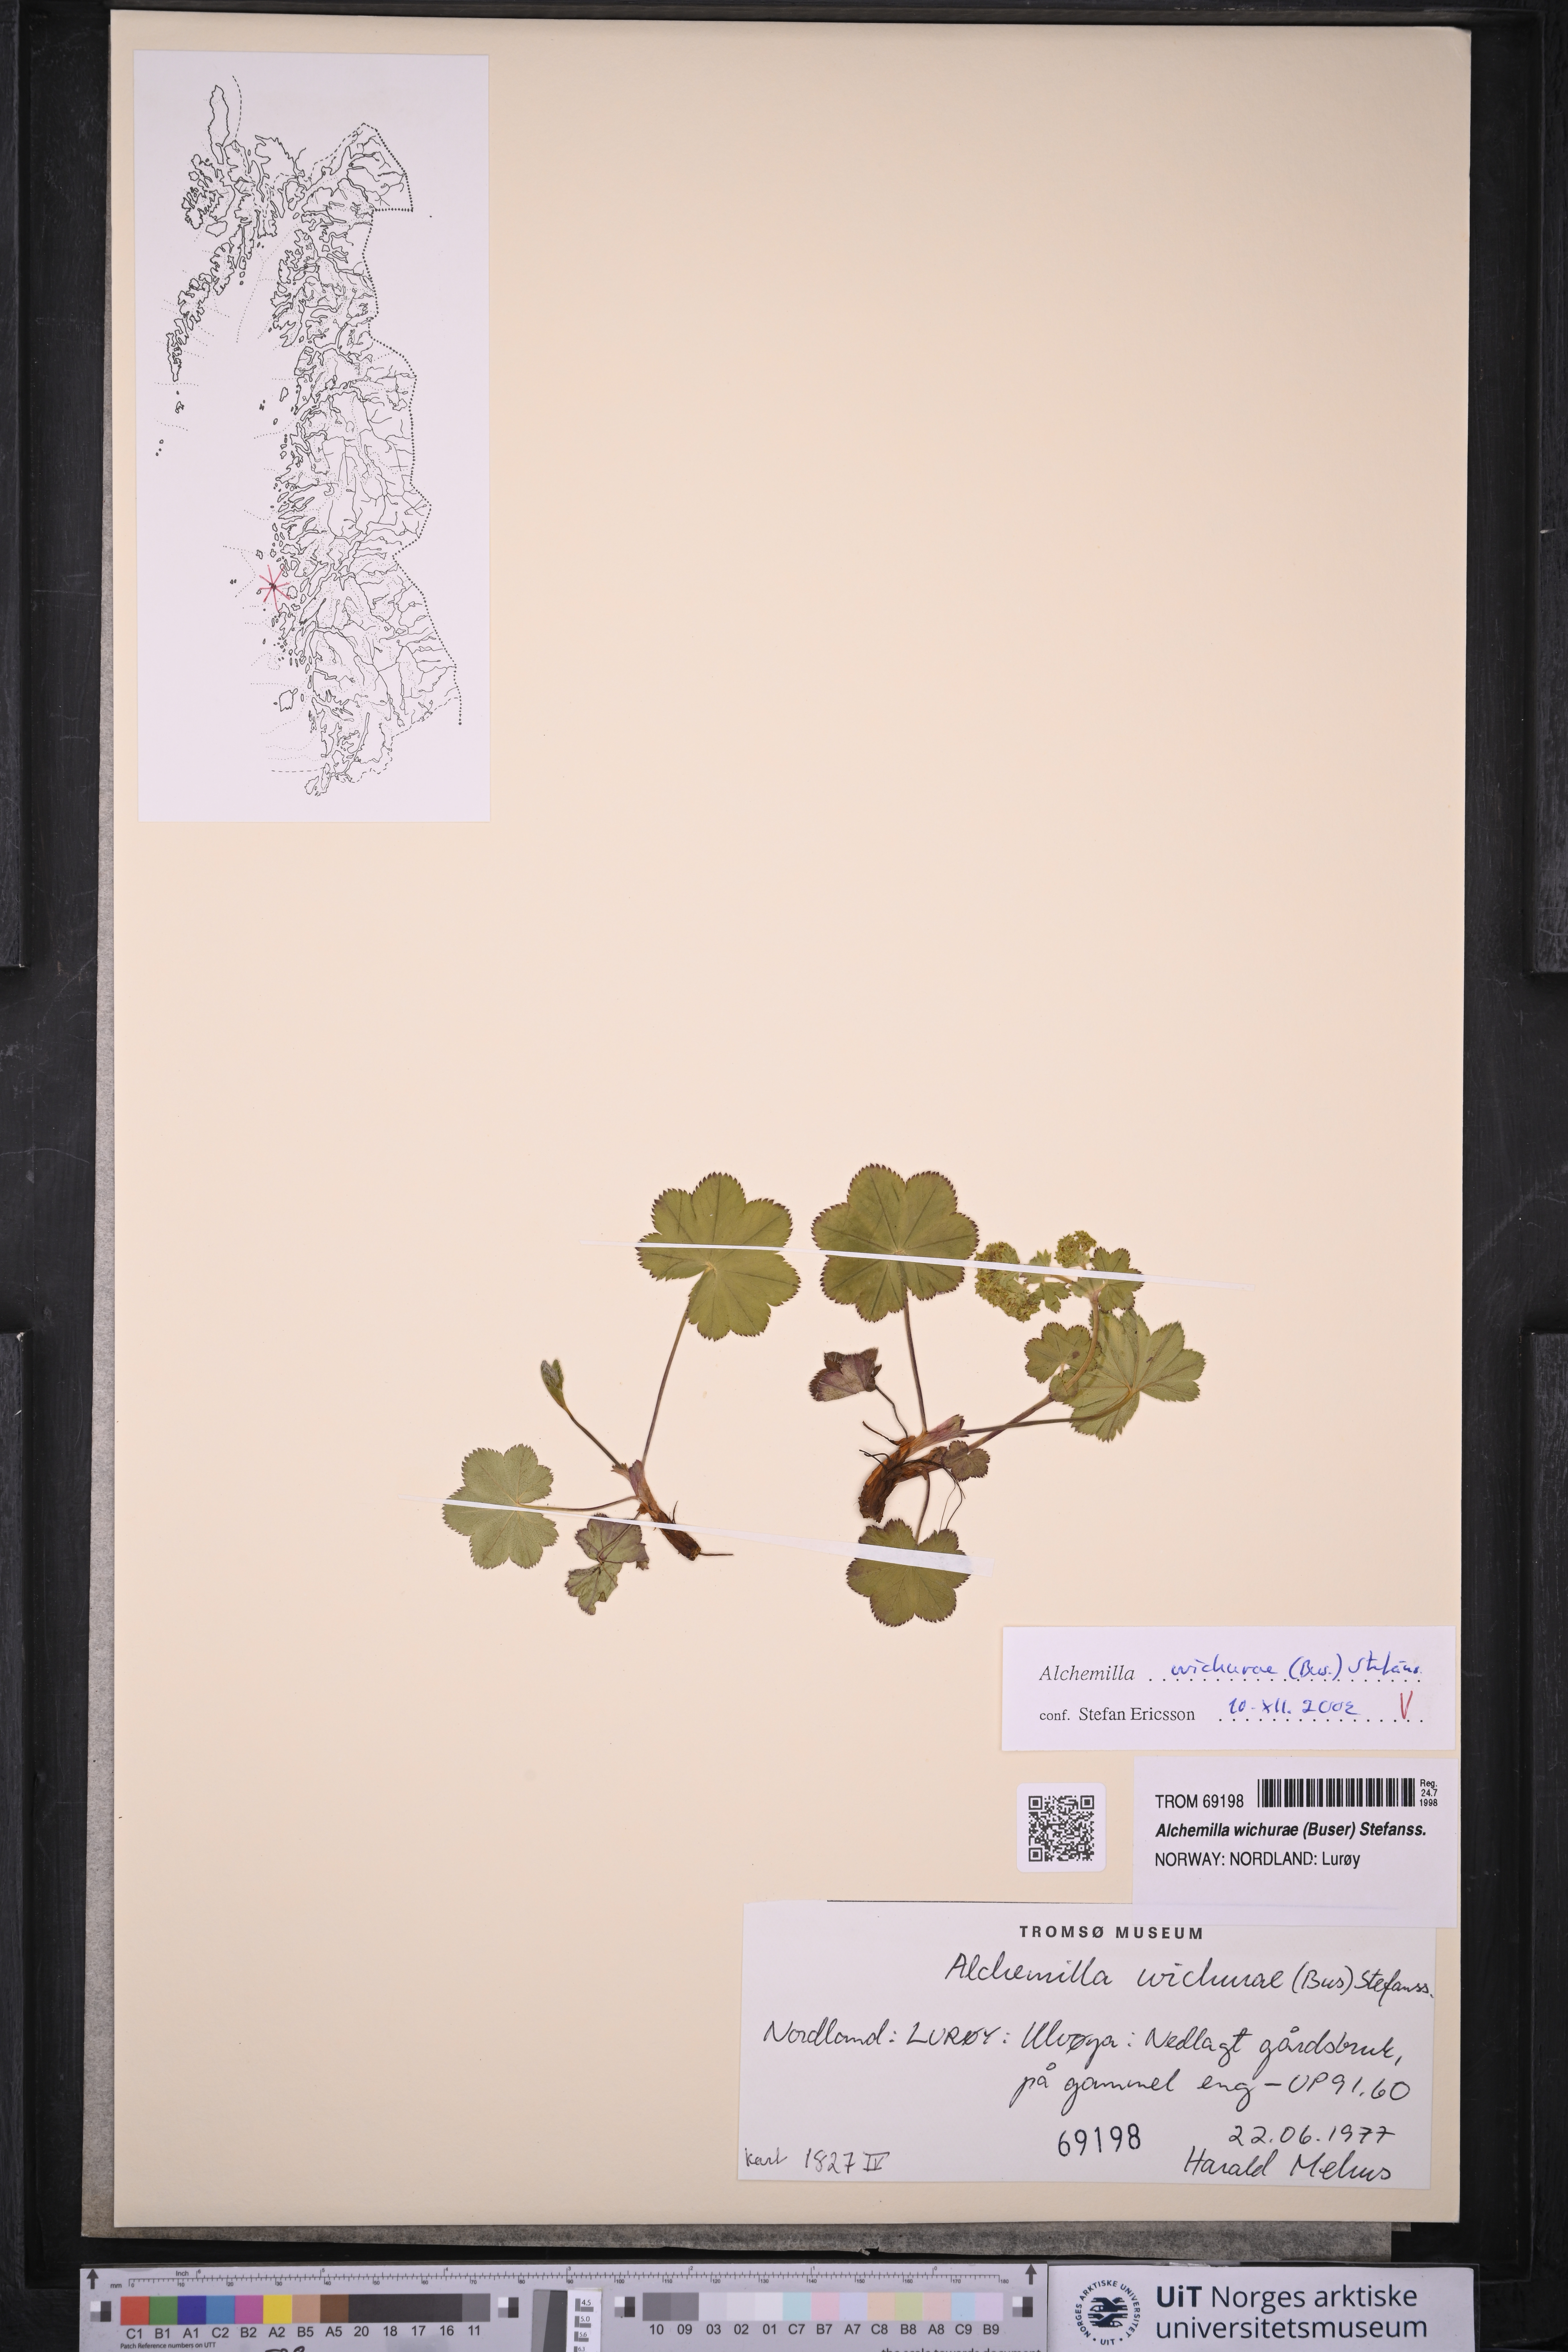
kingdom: Plantae
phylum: Tracheophyta
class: Magnoliopsida
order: Rosales
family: Rosaceae
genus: Alchemilla
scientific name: Alchemilla wichurae
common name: Rock lady's mantle
